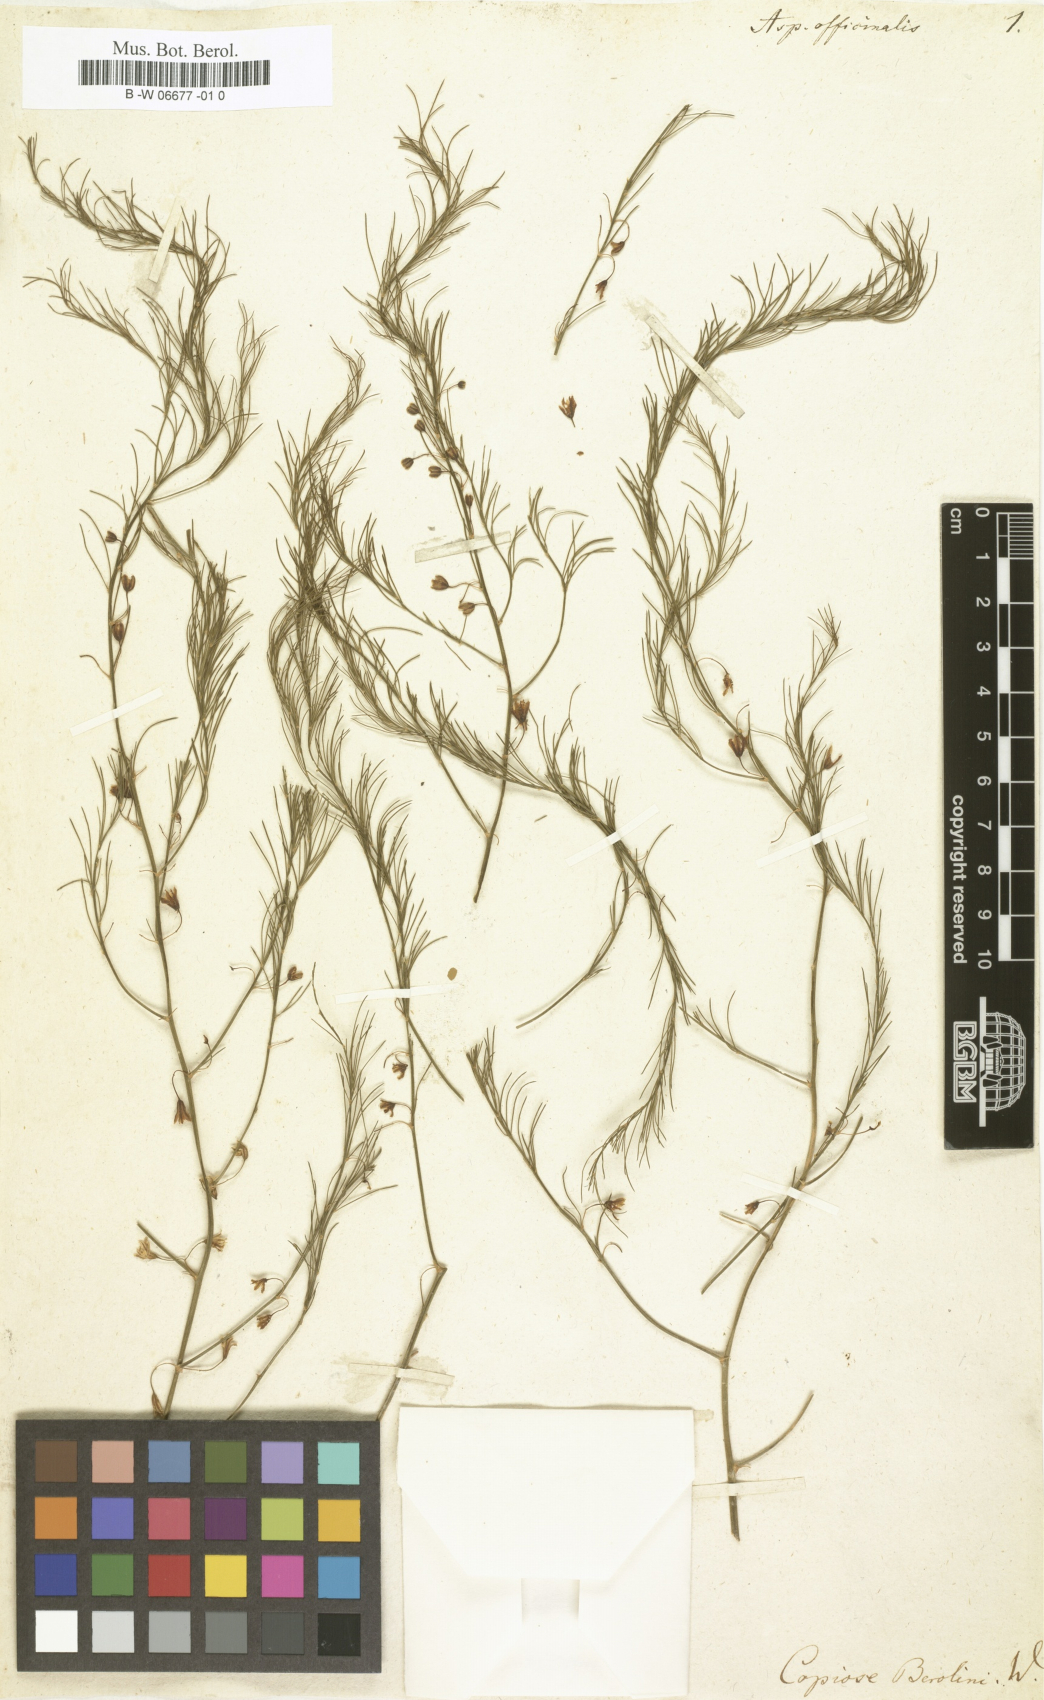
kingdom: Plantae
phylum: Tracheophyta
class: Liliopsida
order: Asparagales
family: Asparagaceae
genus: Asparagus
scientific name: Asparagus officinalis
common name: Garden asparagus
